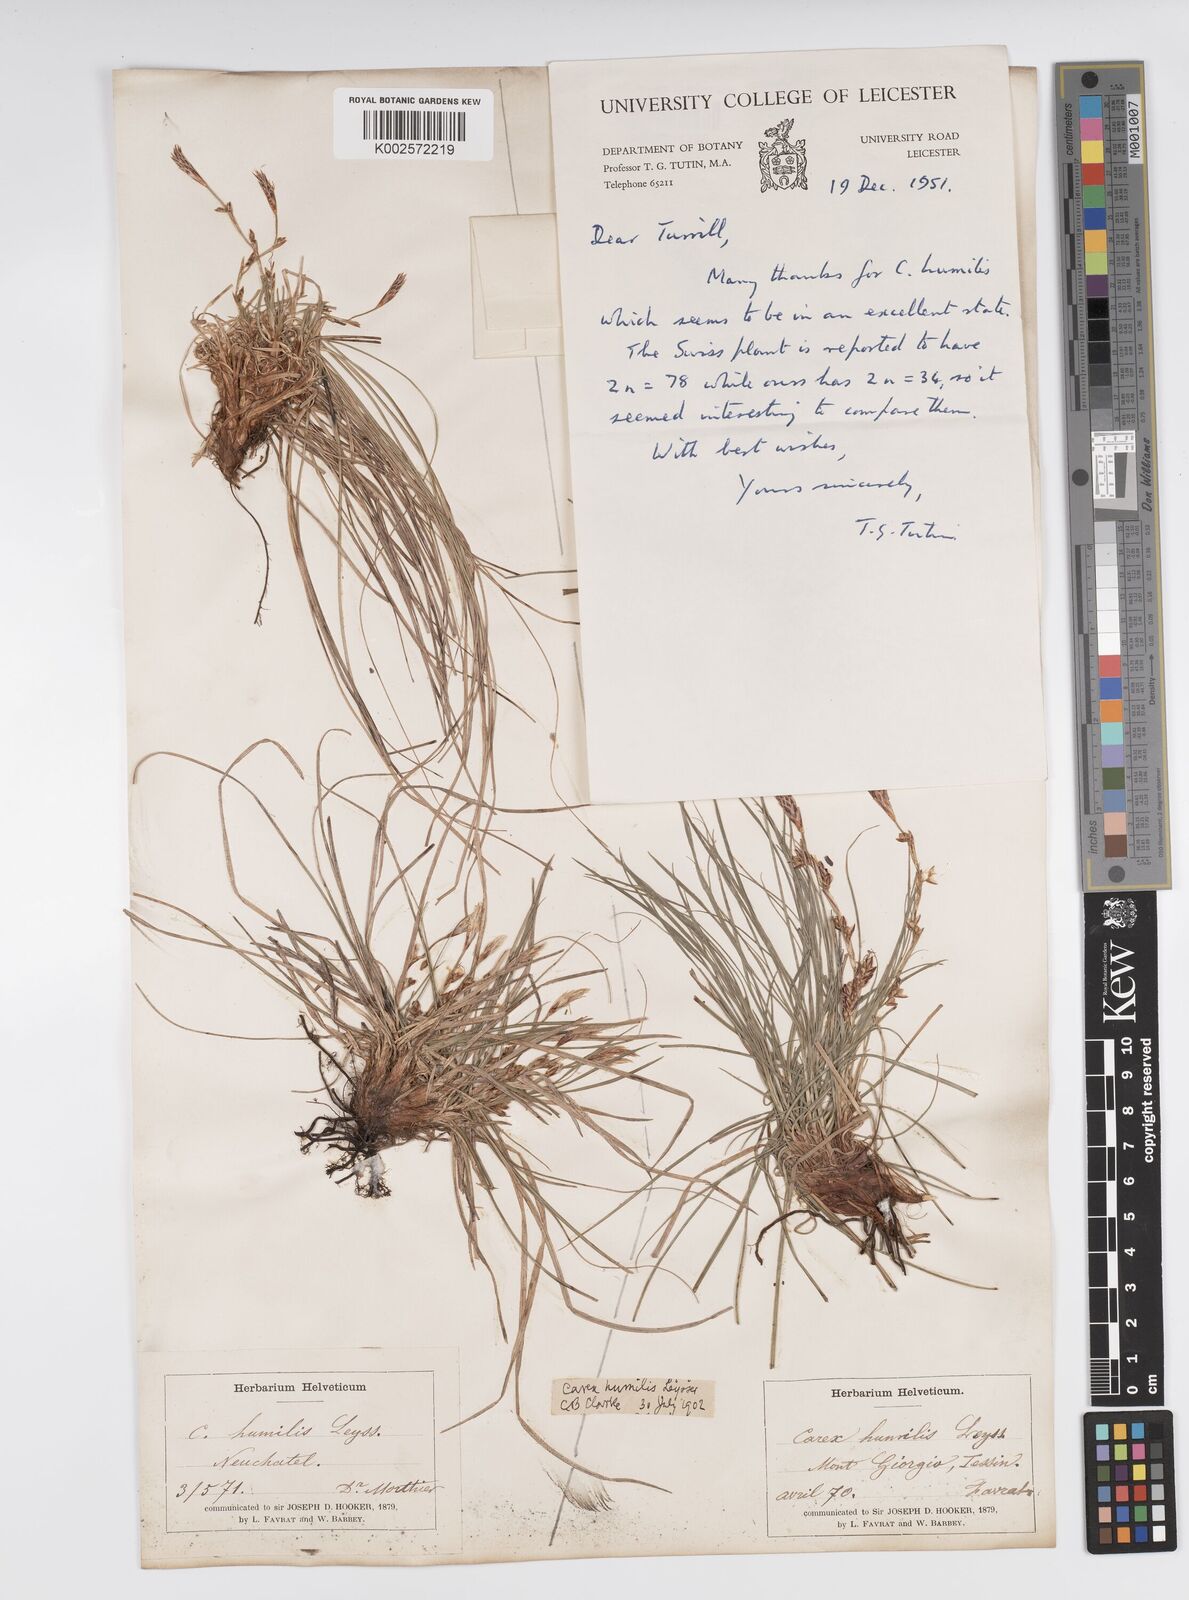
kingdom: Plantae
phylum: Tracheophyta
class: Liliopsida
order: Poales
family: Cyperaceae
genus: Carex
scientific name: Carex humilis
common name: Dwarf sedge
